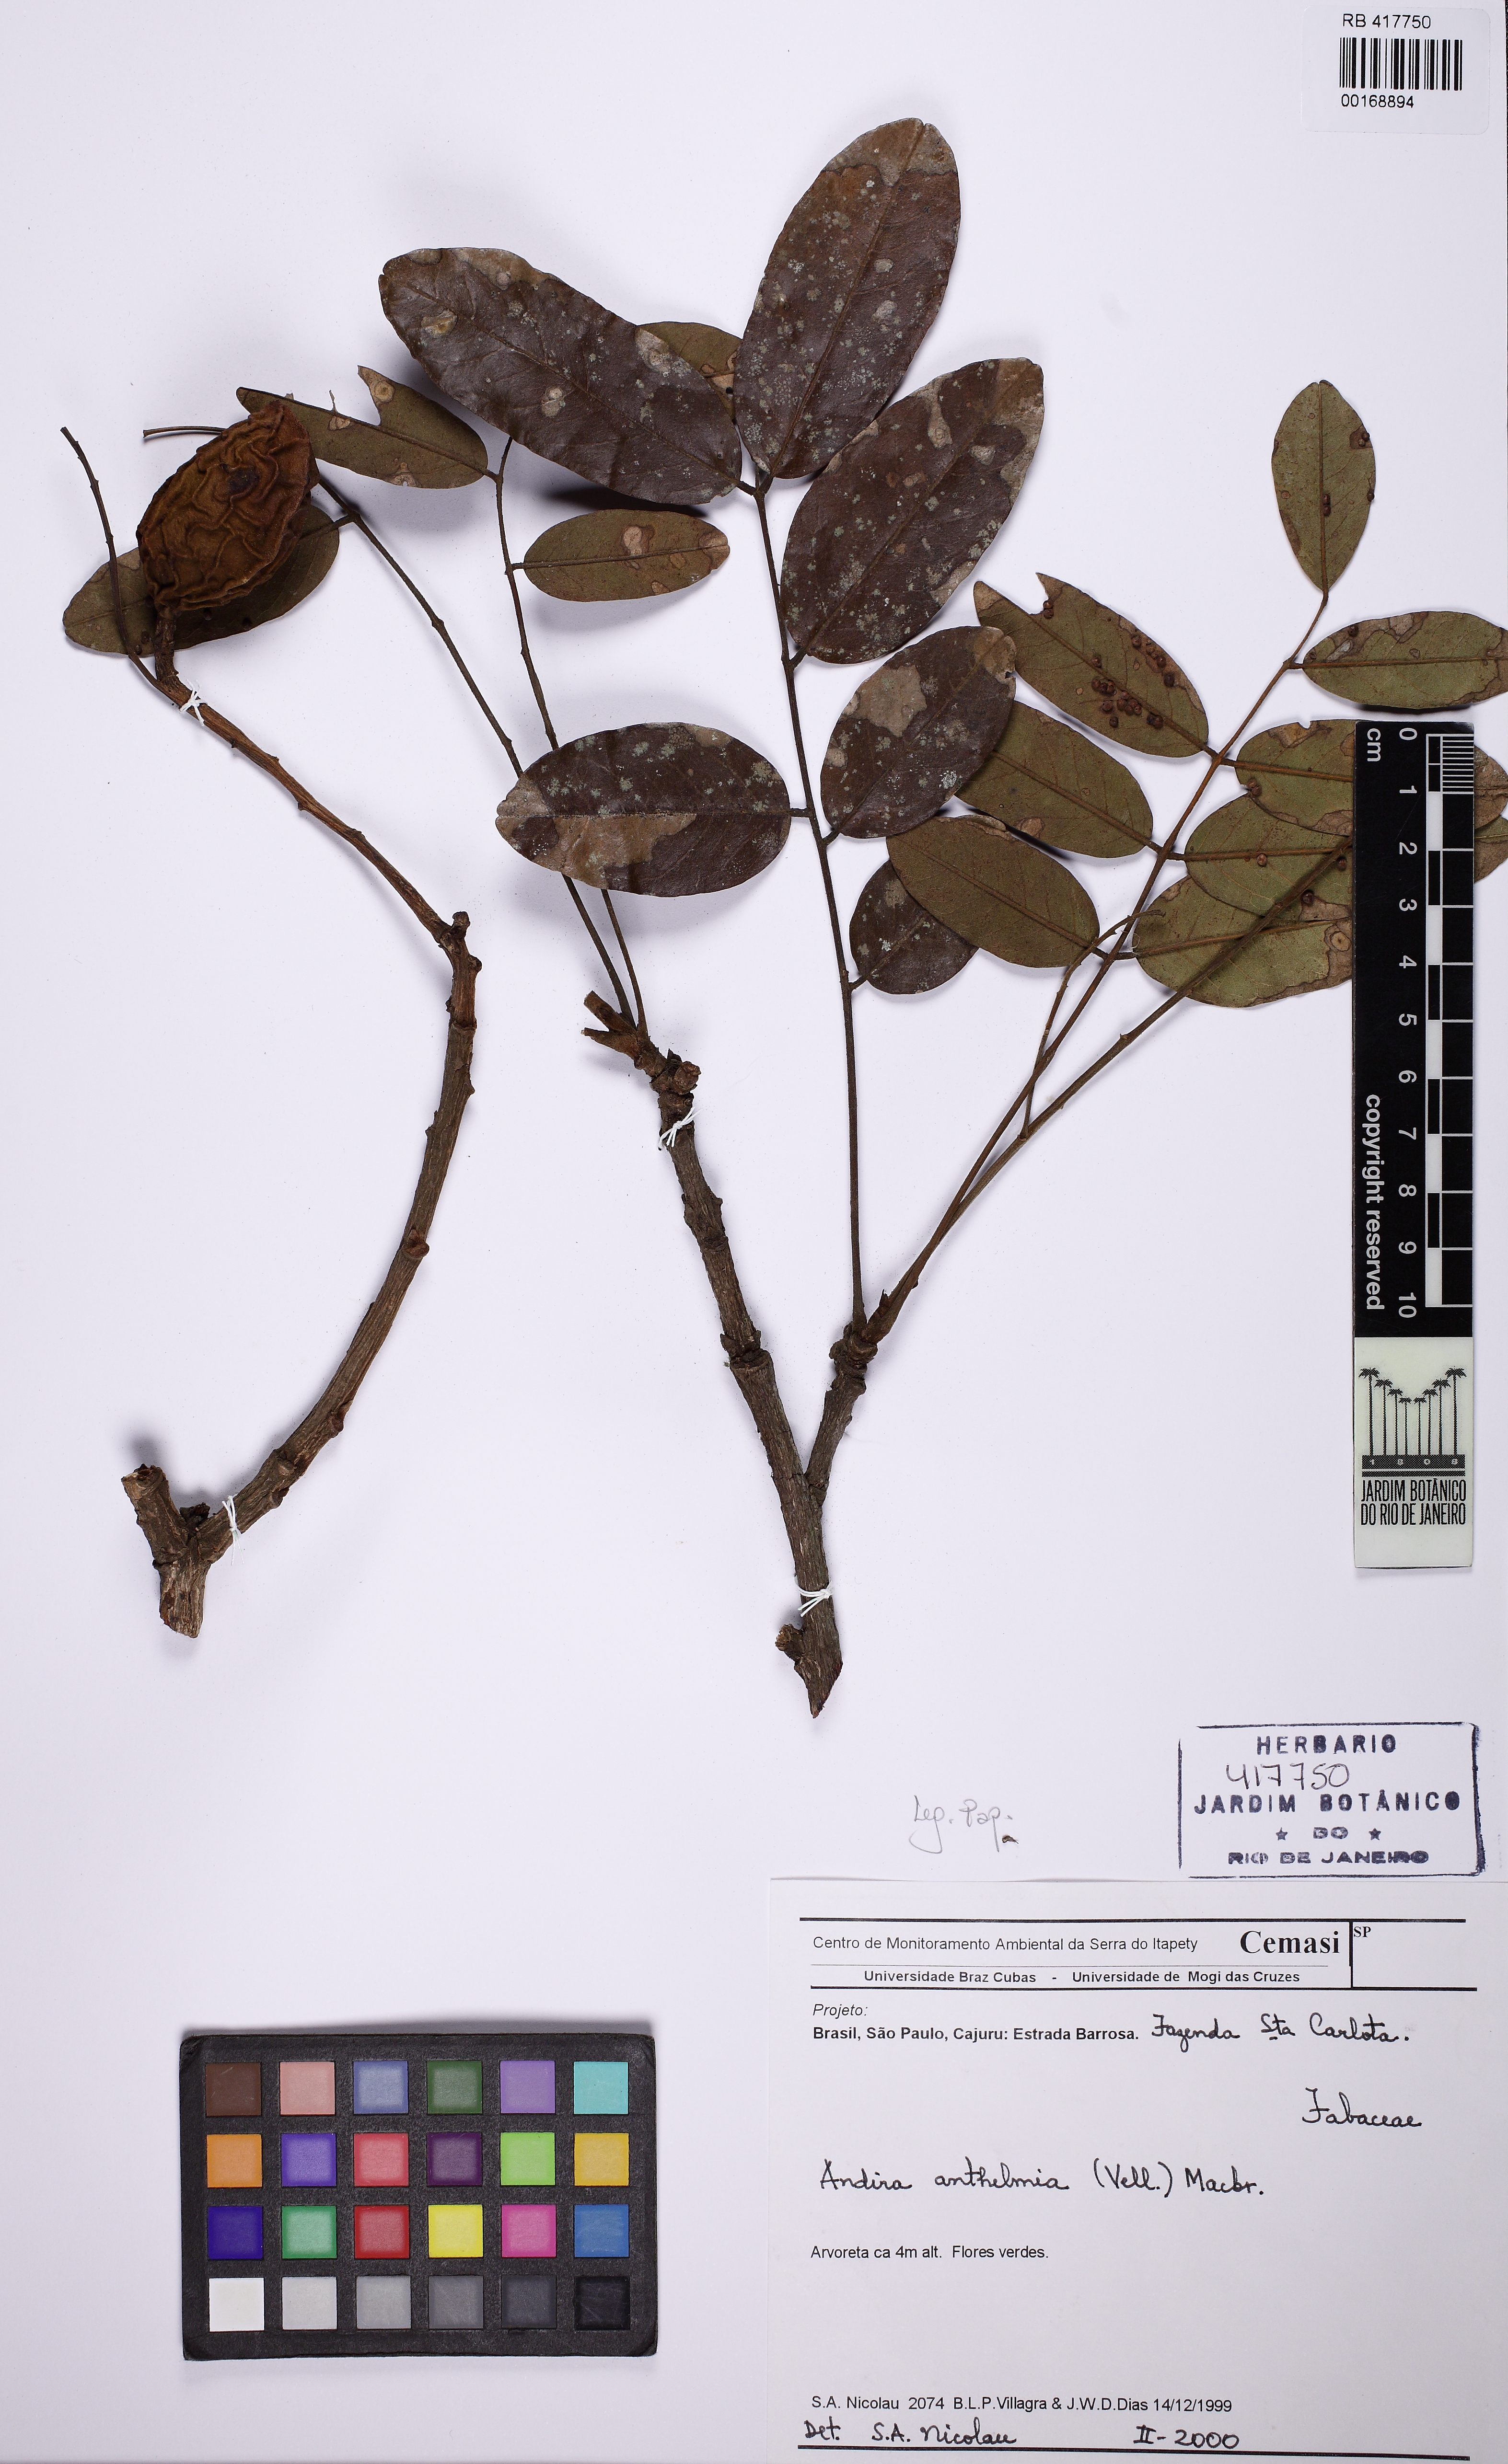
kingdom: Plantae
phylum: Tracheophyta
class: Magnoliopsida
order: Fabales
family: Fabaceae
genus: Andira
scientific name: Andira anthelmia
